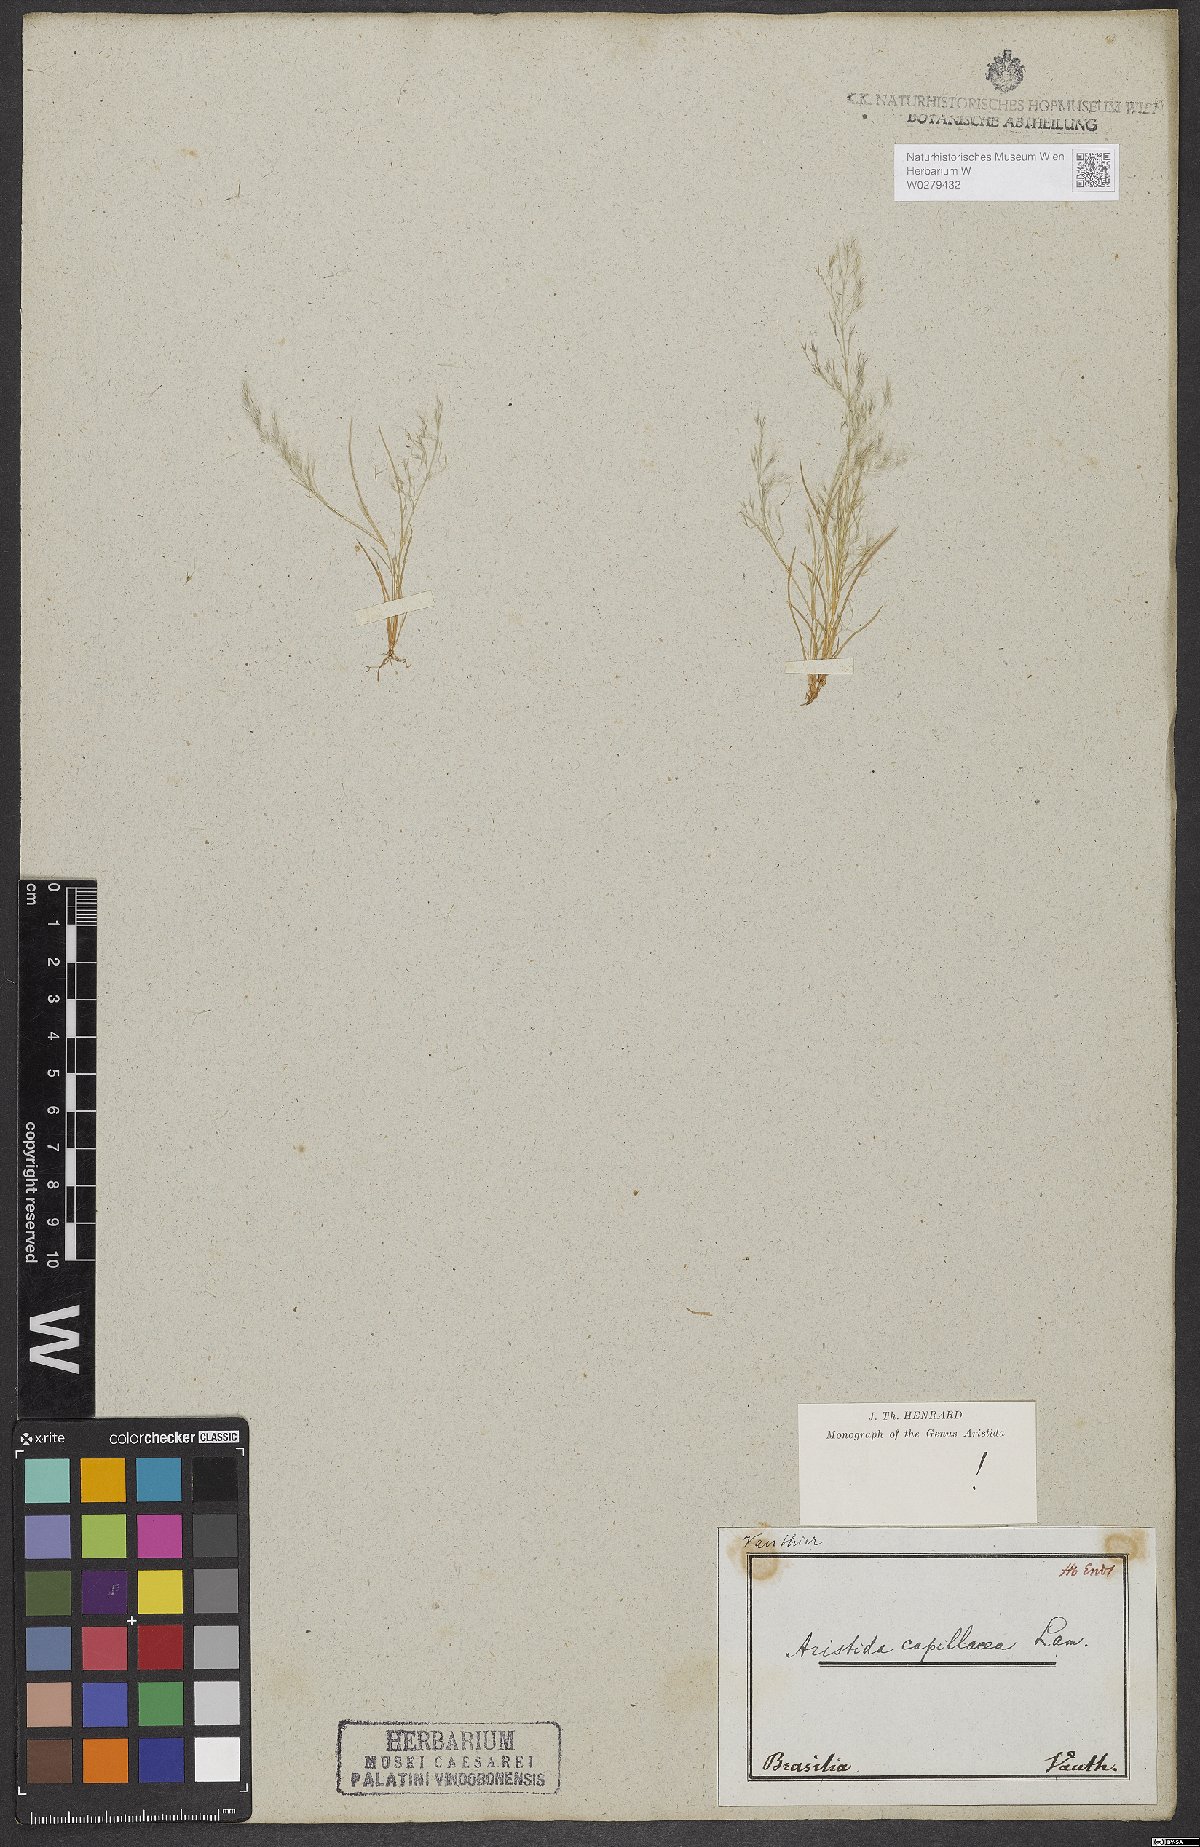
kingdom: Plantae
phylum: Tracheophyta
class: Liliopsida
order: Poales
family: Poaceae
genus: Aristida
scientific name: Aristida capillacea
